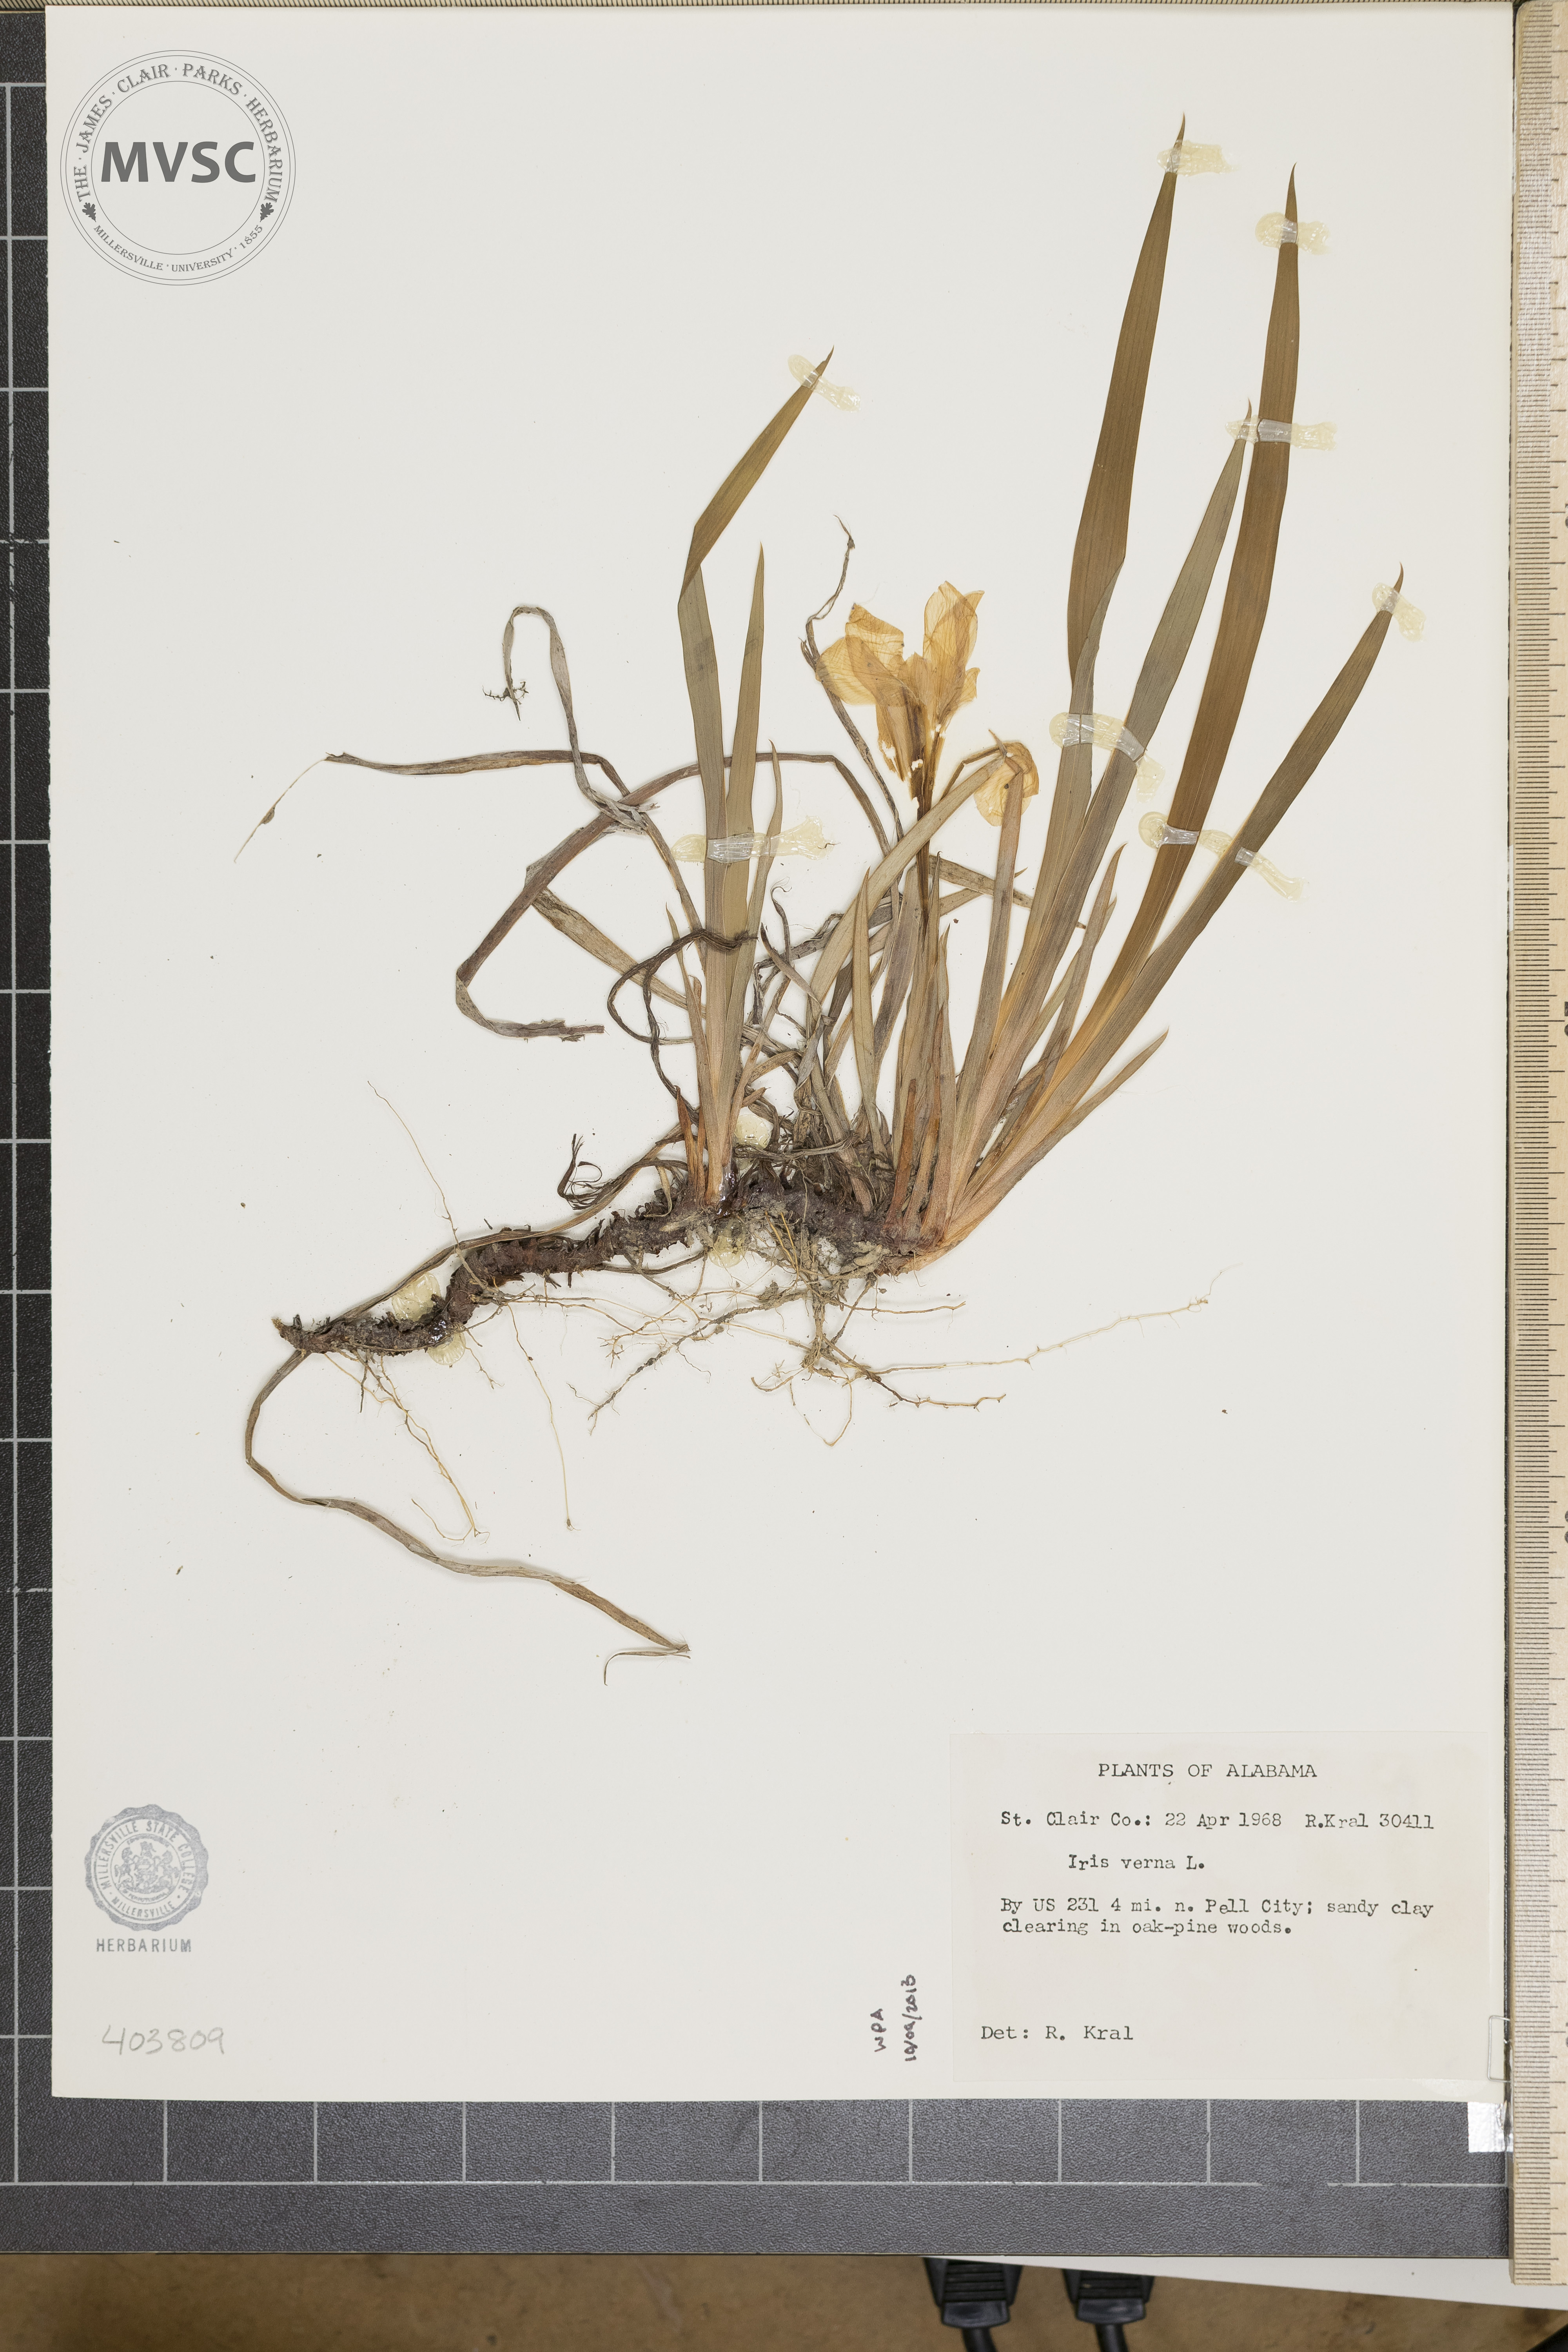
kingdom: Plantae
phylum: Tracheophyta
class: Liliopsida
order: Asparagales
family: Iridaceae
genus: Iris
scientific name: Iris verna
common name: Dwarf iris
